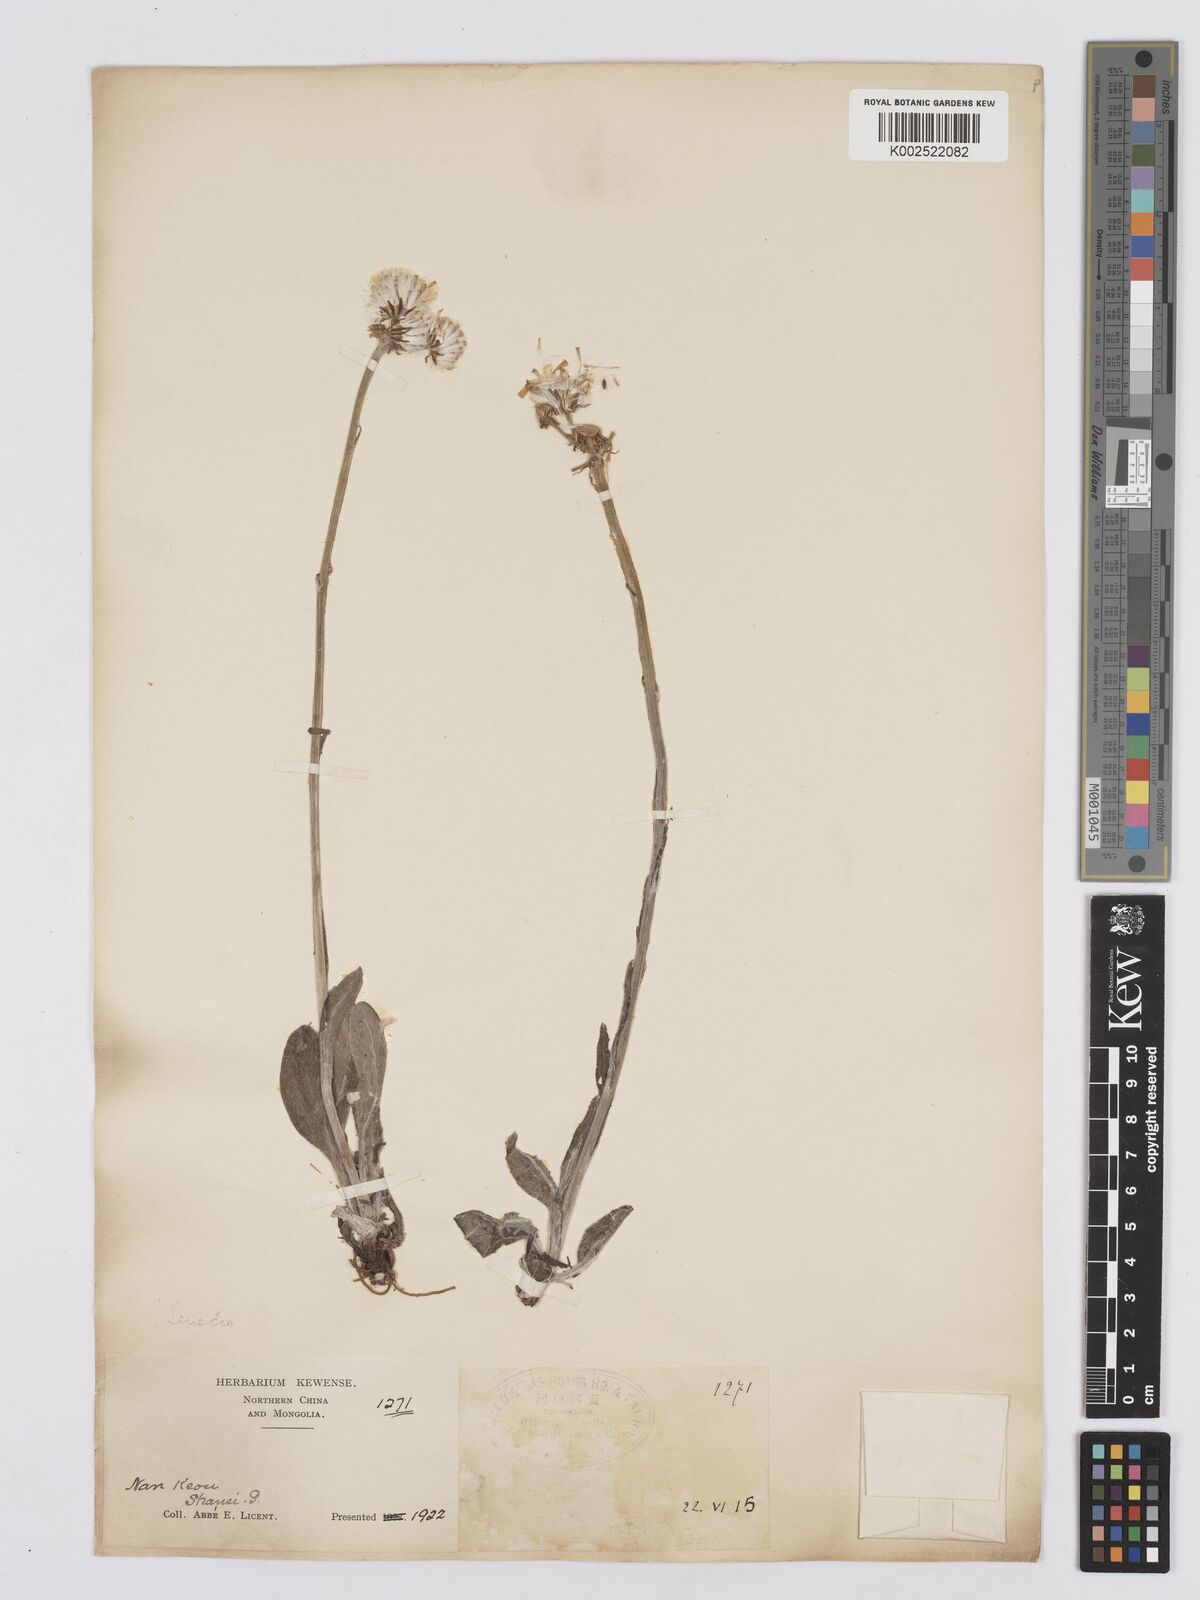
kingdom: Plantae
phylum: Tracheophyta
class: Magnoliopsida
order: Asterales
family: Asteraceae
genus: Tephroseris
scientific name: Tephroseris kirilowii
